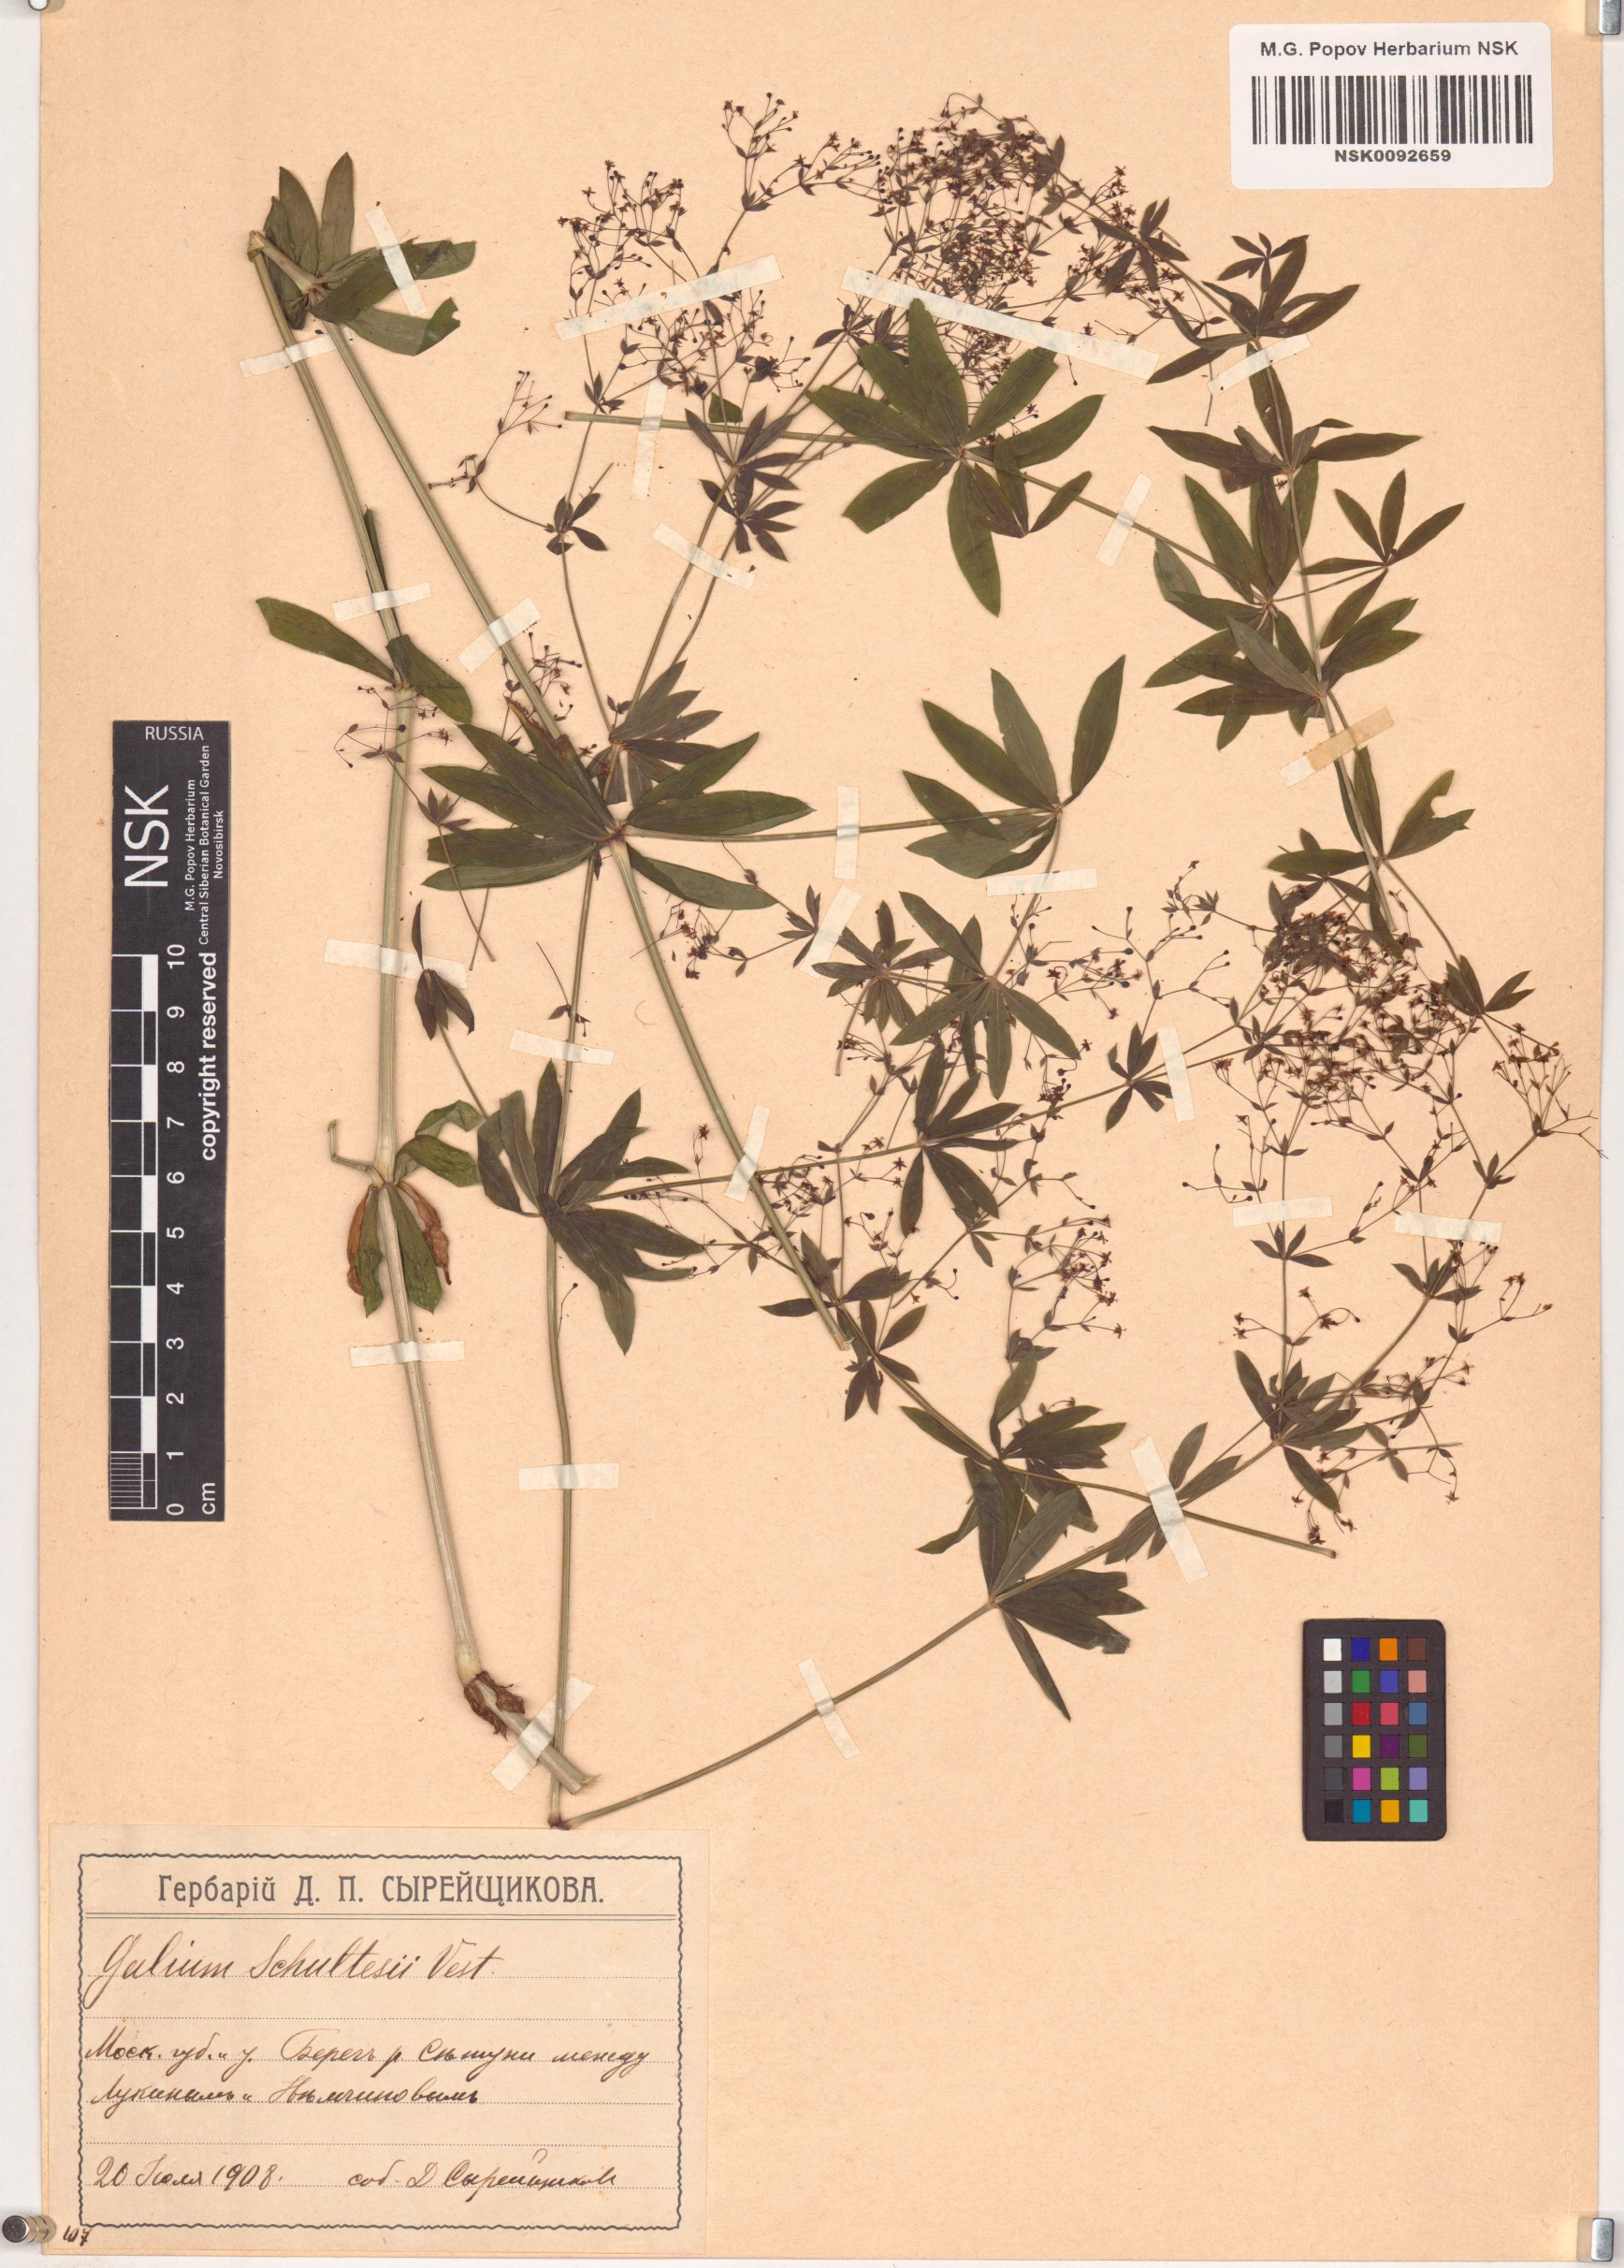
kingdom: Plantae
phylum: Tracheophyta
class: Magnoliopsida
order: Gentianales
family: Rubiaceae
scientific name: Rubiaceae
